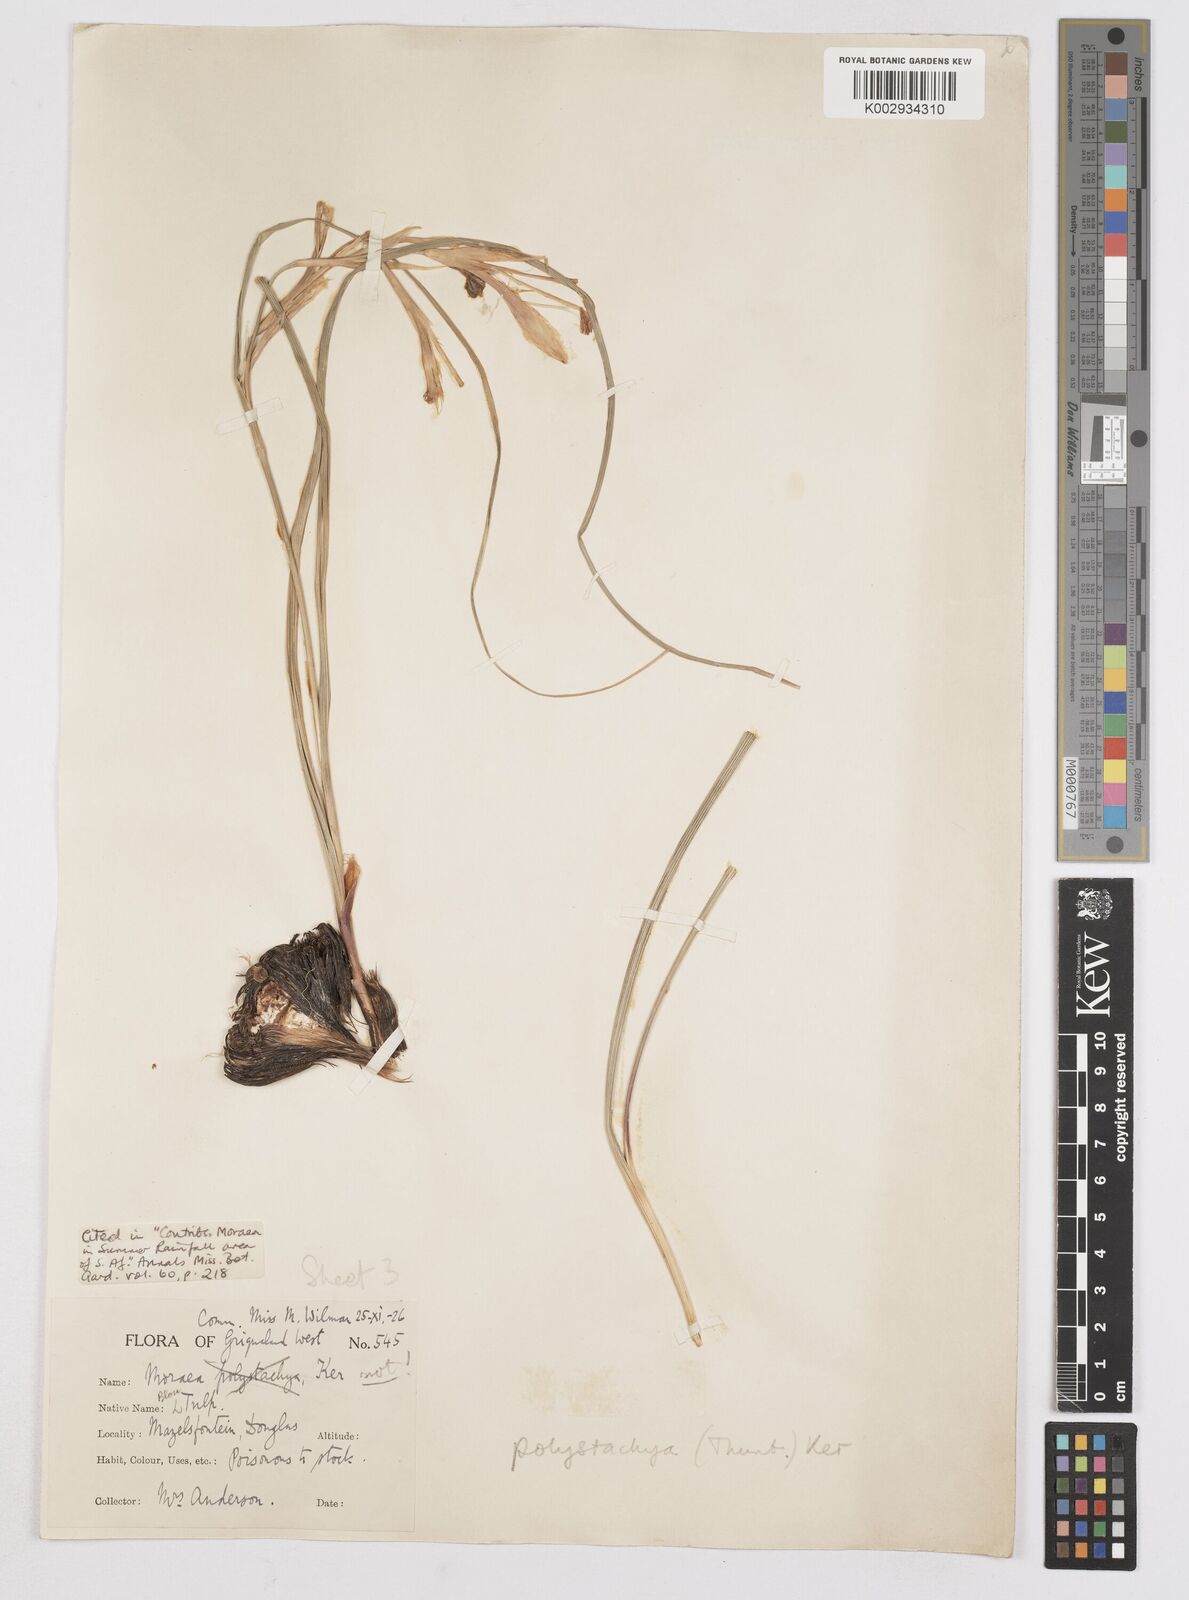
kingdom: Plantae
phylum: Tracheophyta
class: Liliopsida
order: Asparagales
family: Iridaceae
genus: Moraea
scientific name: Moraea polystachya
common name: Blue-tulip
